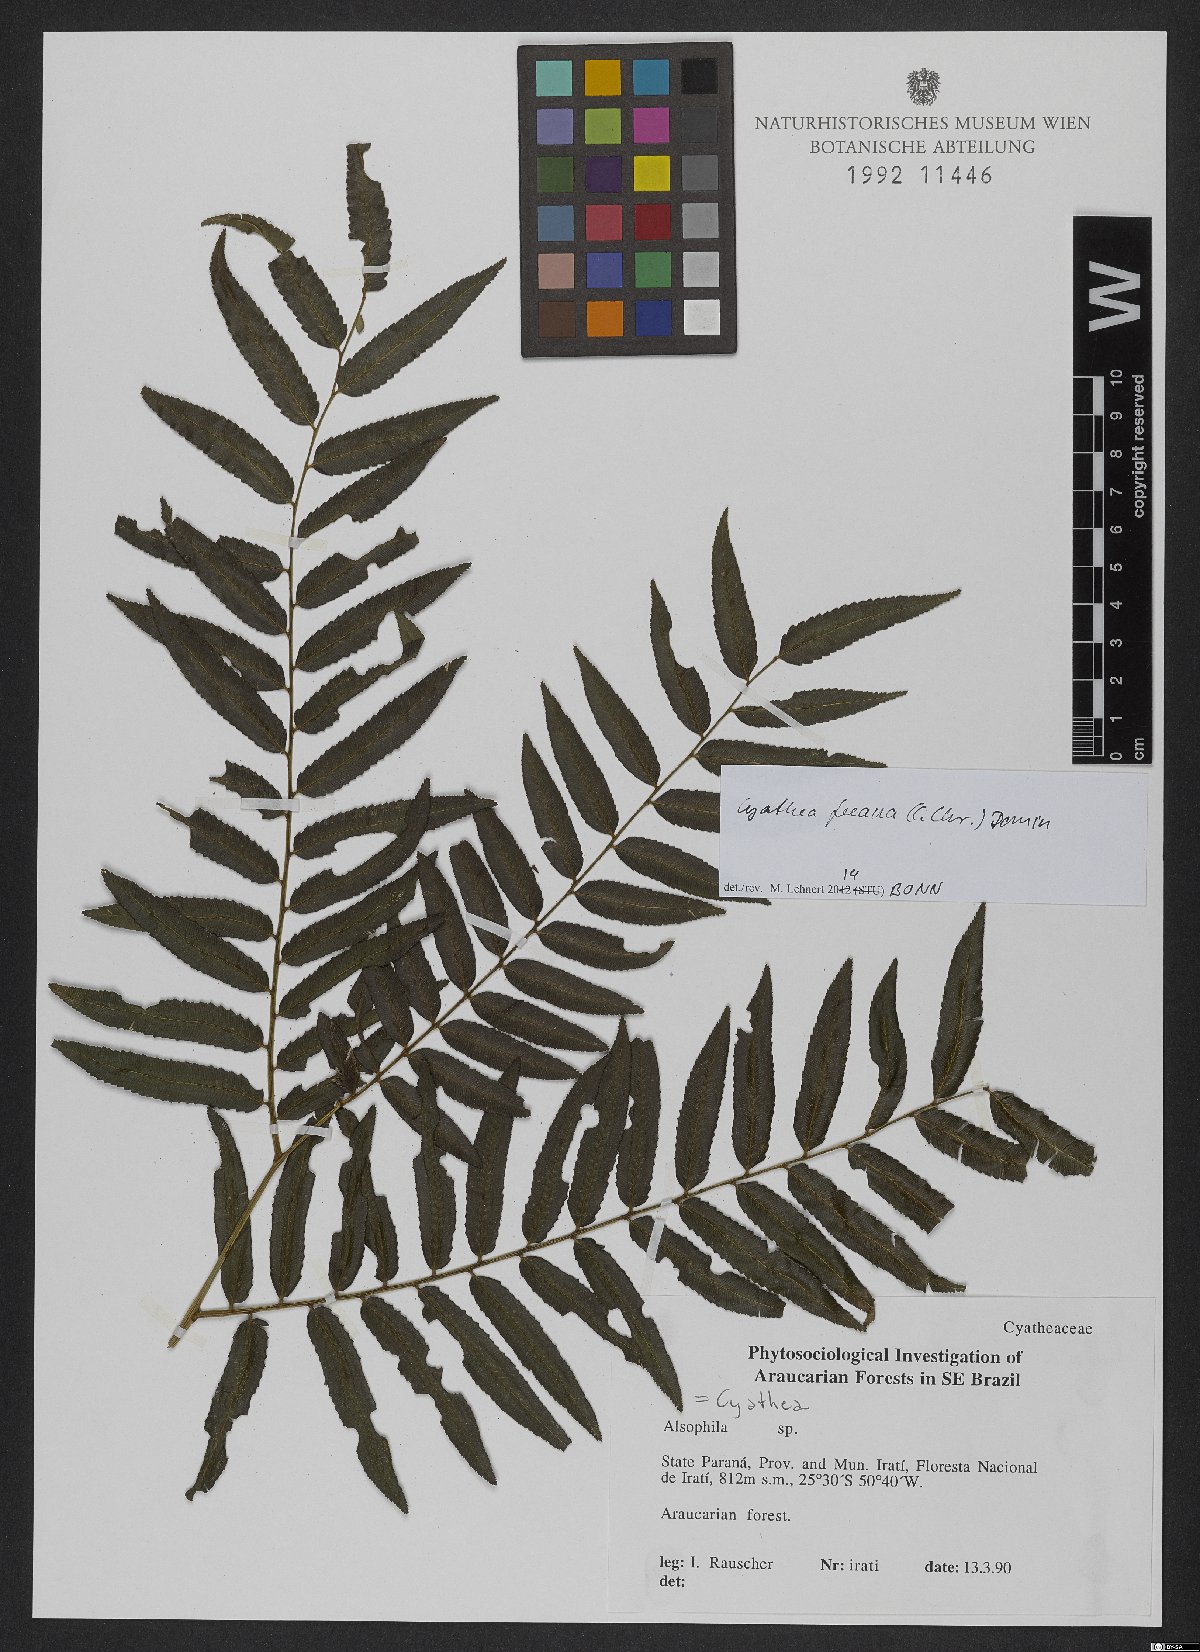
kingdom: Plantae
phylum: Tracheophyta
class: Polypodiopsida
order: Cyatheales
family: Cyatheaceae
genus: Cyathea
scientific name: Cyathea feeana
